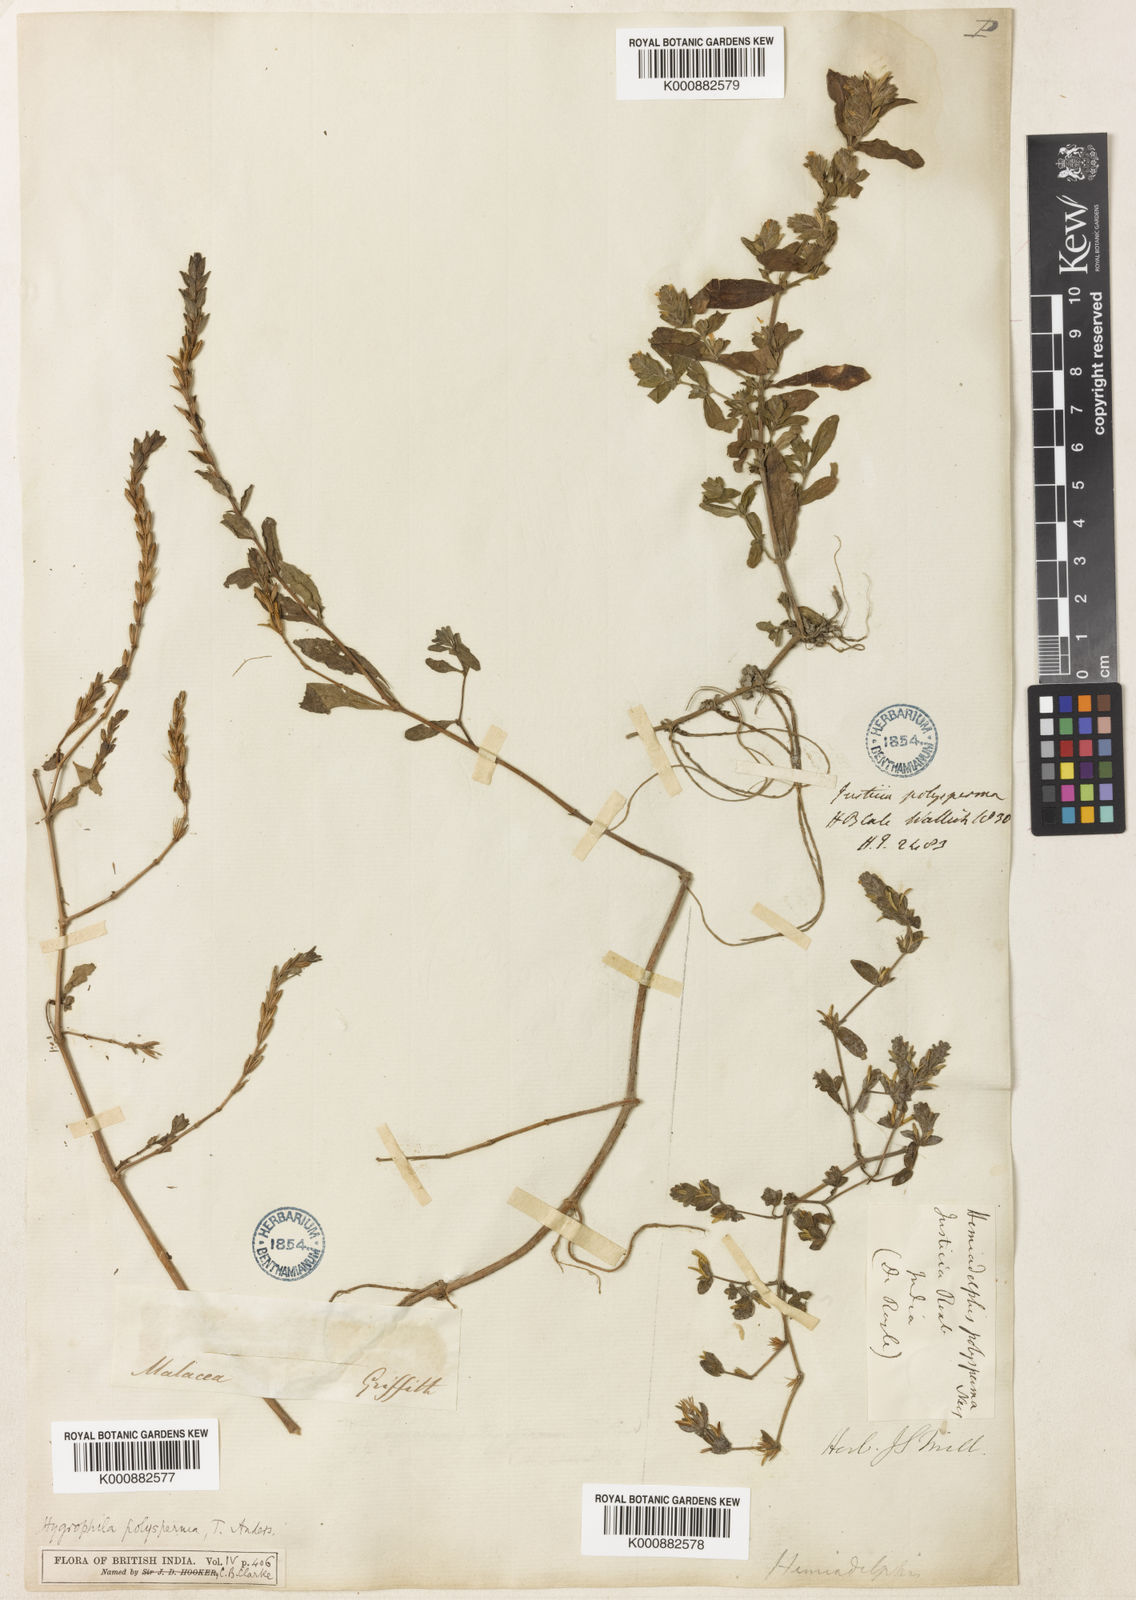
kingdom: Plantae
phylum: Tracheophyta
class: Magnoliopsida
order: Lamiales
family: Acanthaceae
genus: Hygrophila
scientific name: Hygrophila polysperma
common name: Indian swampweed
